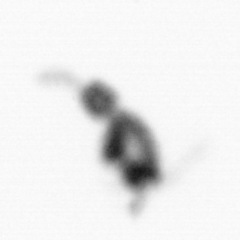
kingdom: Animalia
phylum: Arthropoda
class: Copepoda
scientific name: Copepoda
